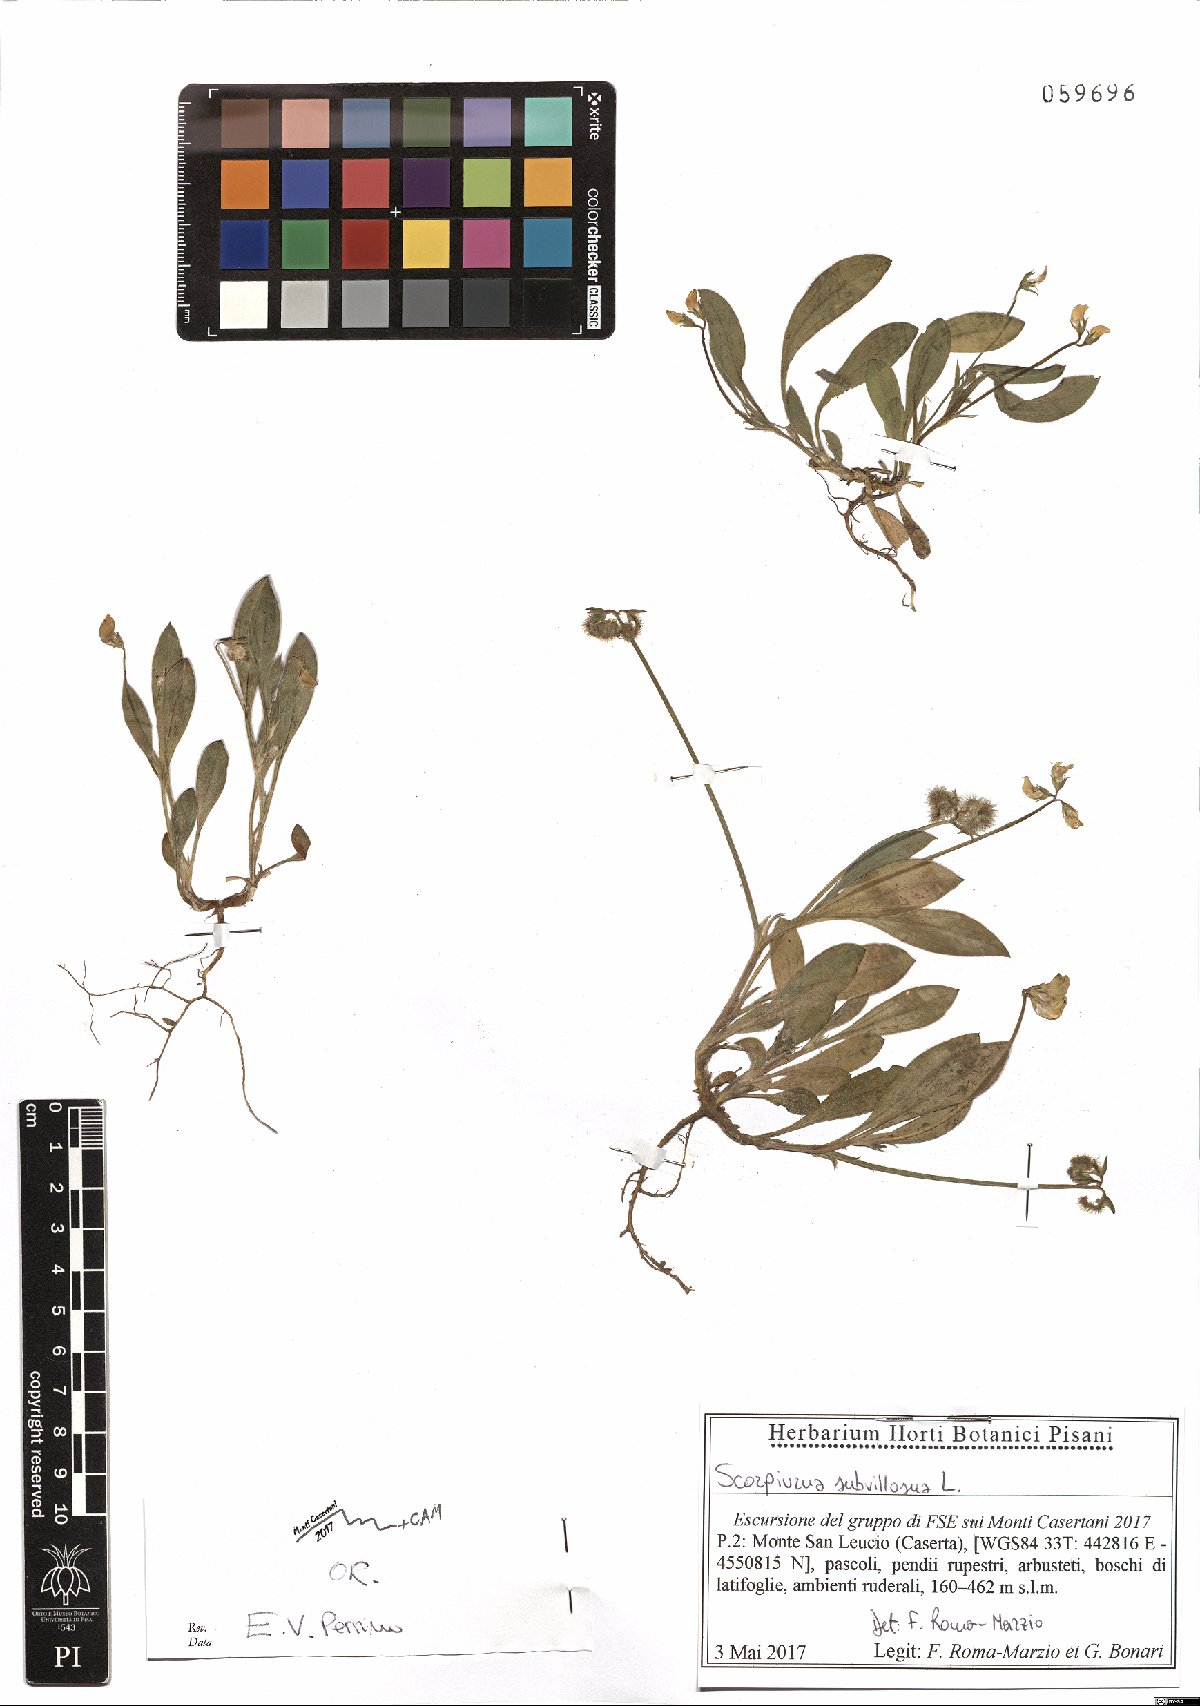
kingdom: Plantae
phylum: Tracheophyta
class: Magnoliopsida
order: Fabales
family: Fabaceae
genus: Scorpiurus
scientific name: Scorpiurus muricatus
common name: Caterpillar-plant
